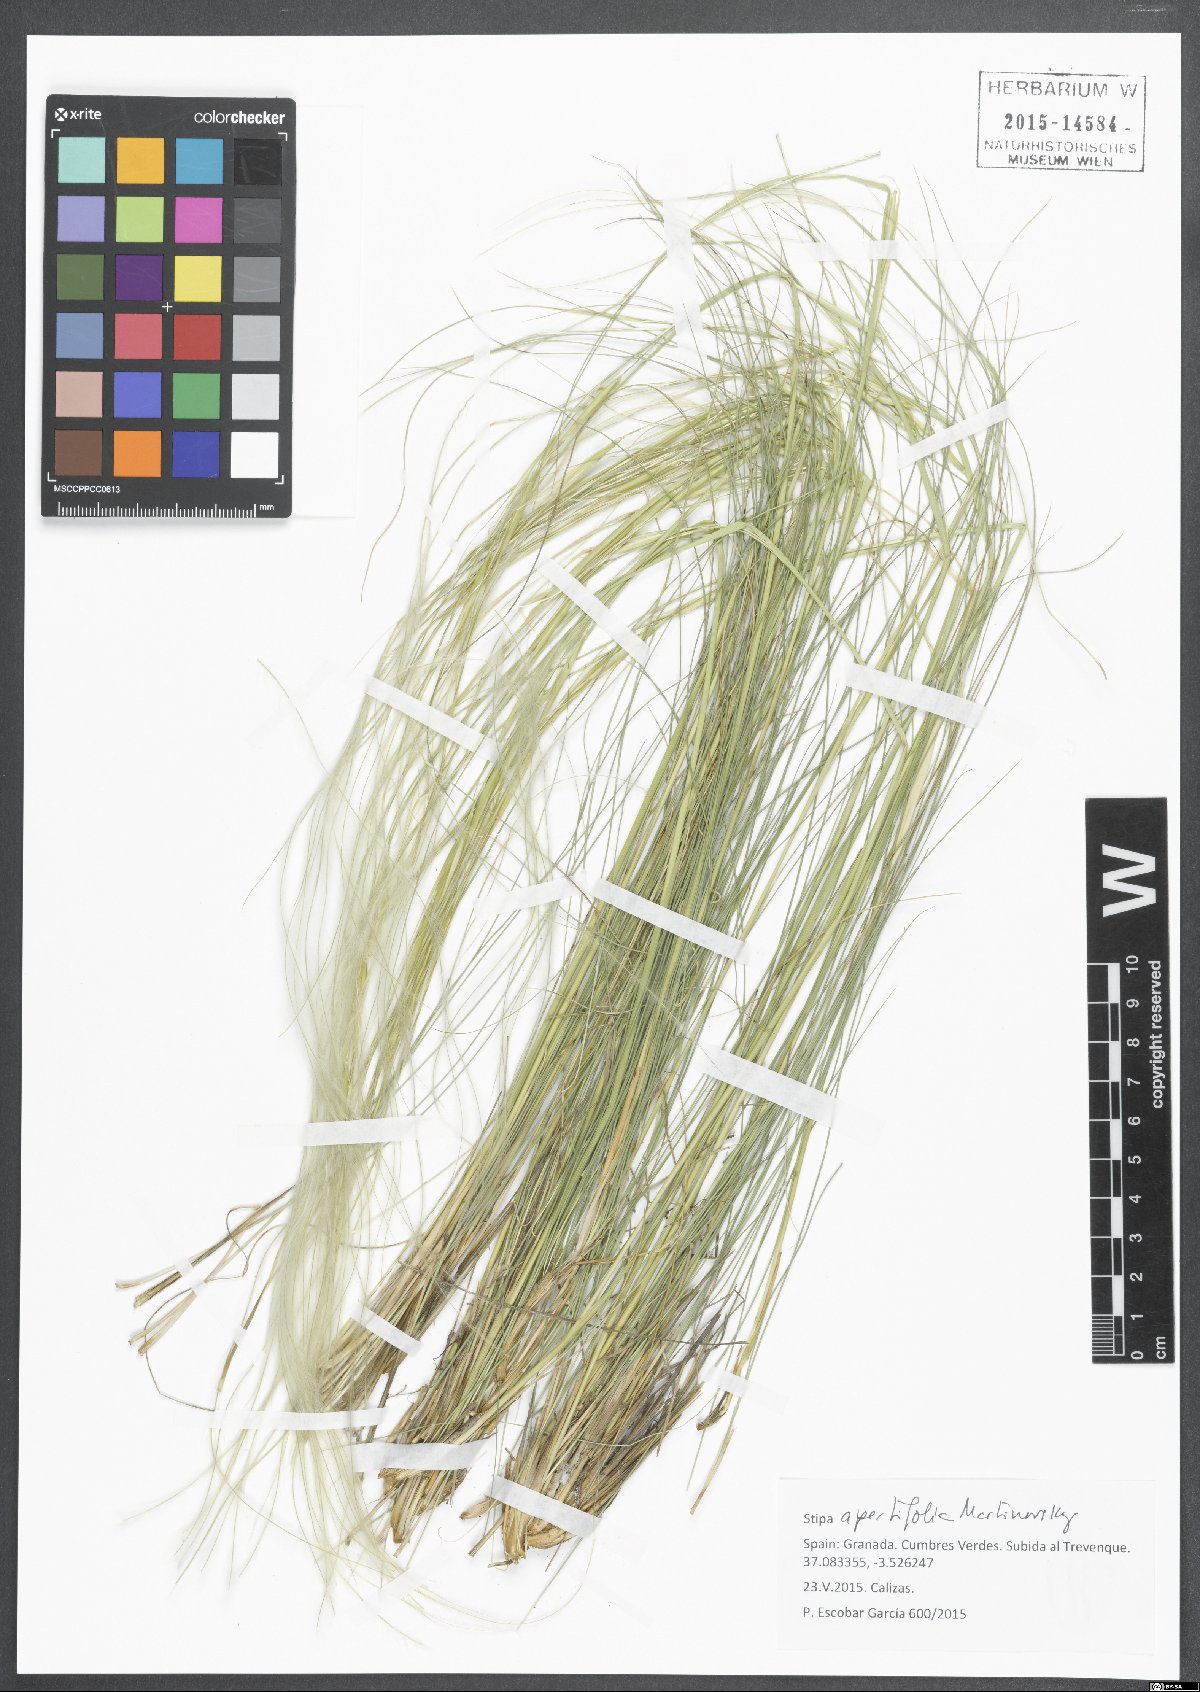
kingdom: Plantae
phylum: Tracheophyta
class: Liliopsida
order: Poales
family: Poaceae
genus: Stipa
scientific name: Stipa apertifolia
